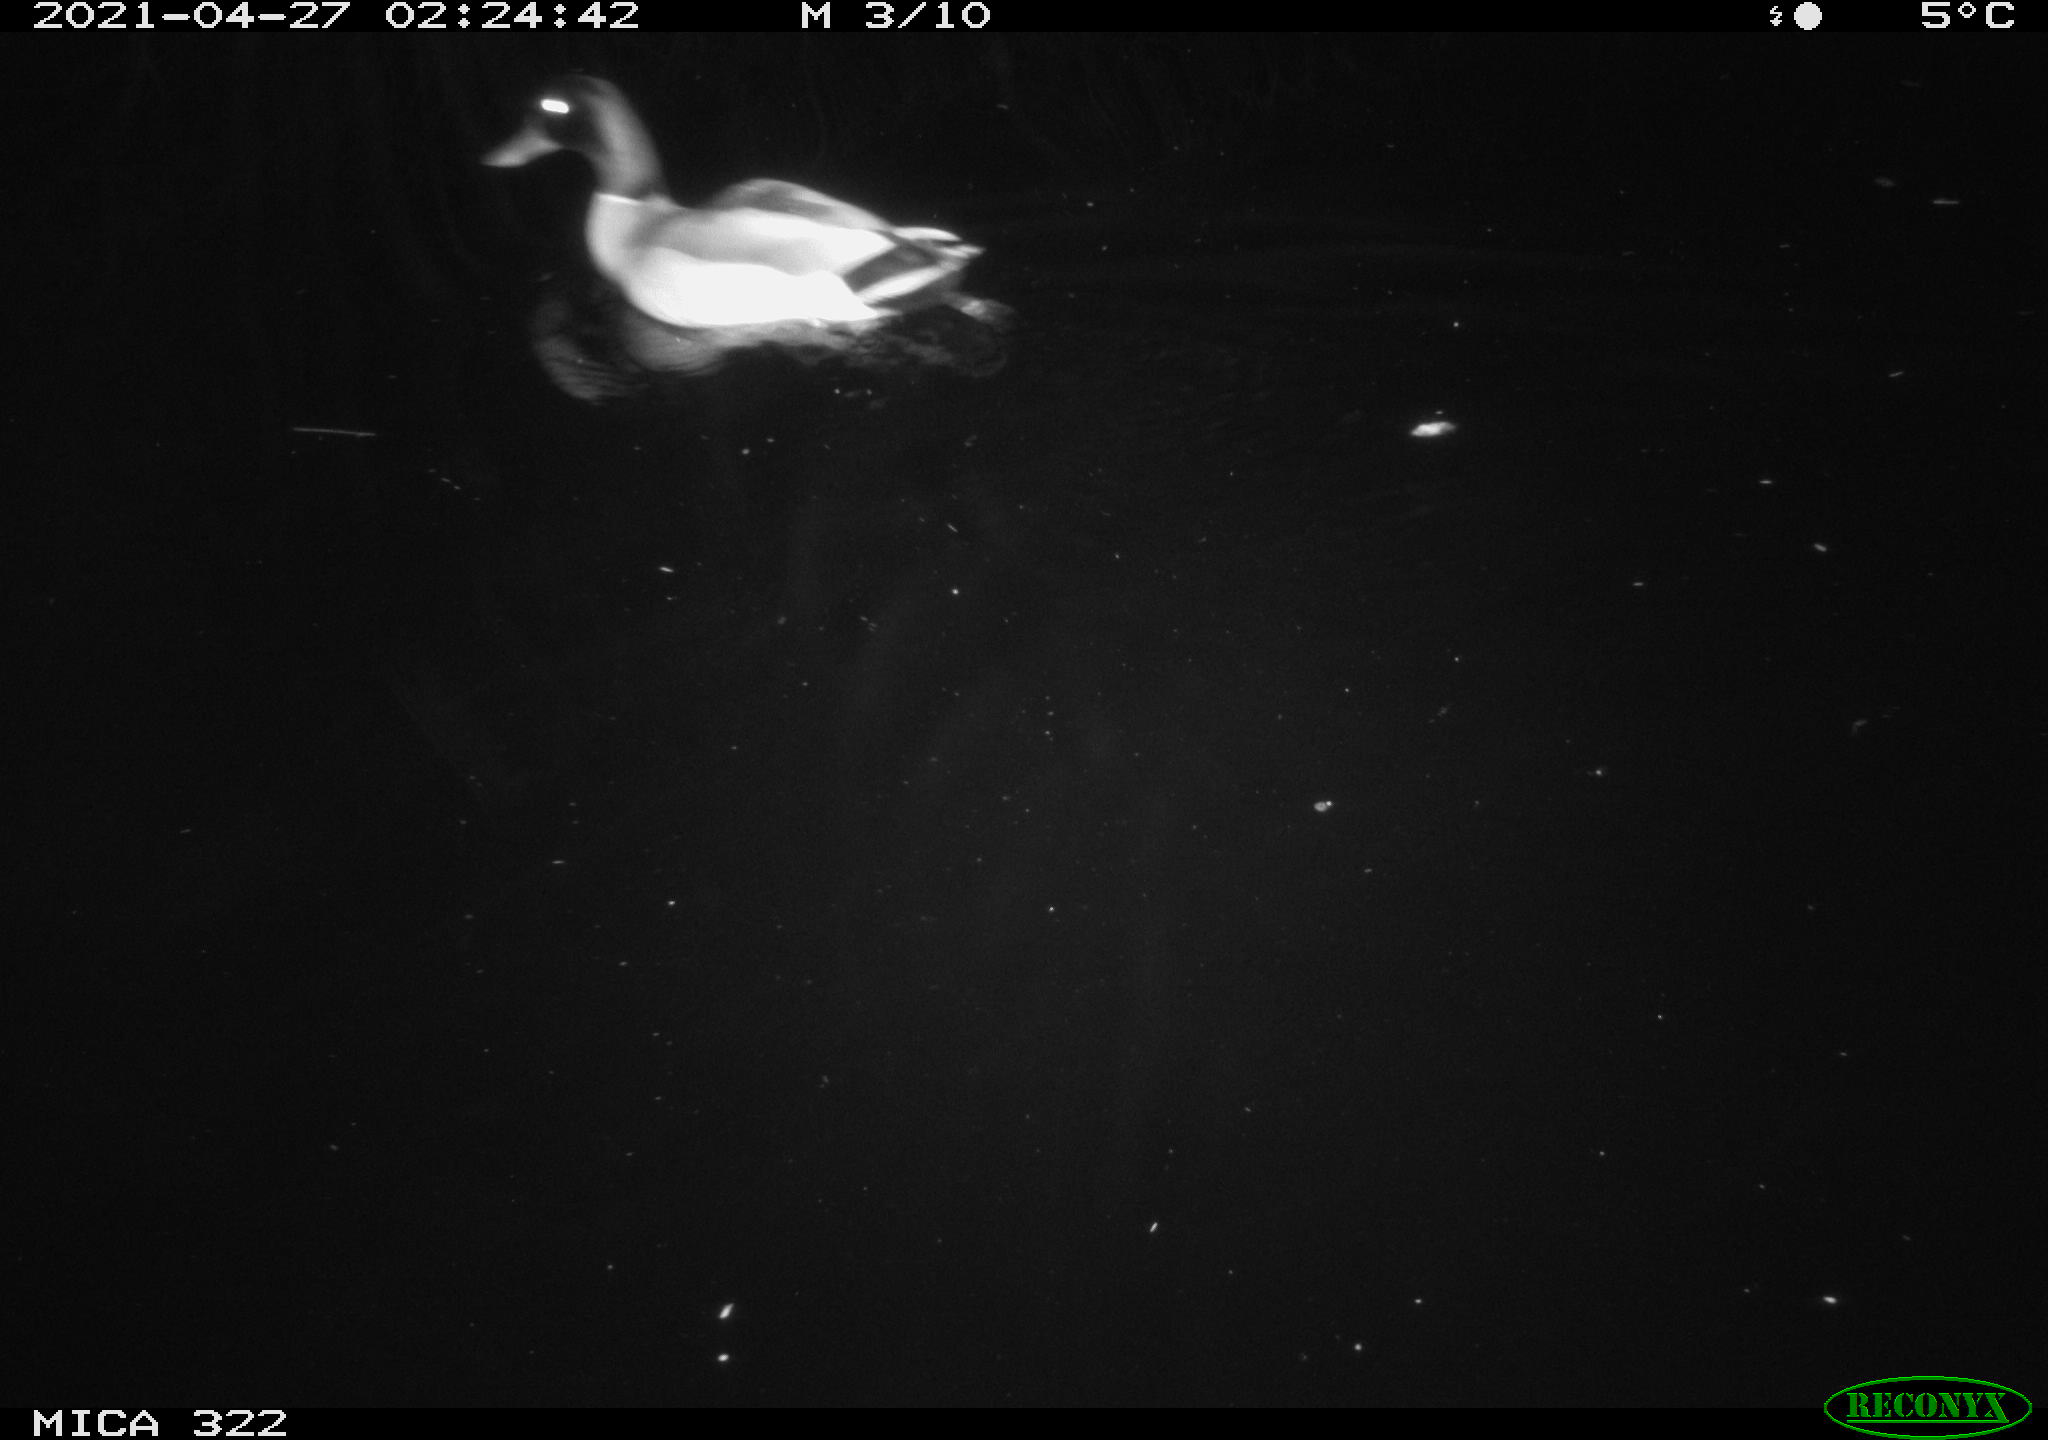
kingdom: Animalia
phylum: Chordata
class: Aves
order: Anseriformes
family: Anatidae
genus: Mareca
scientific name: Mareca strepera
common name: Gadwall
